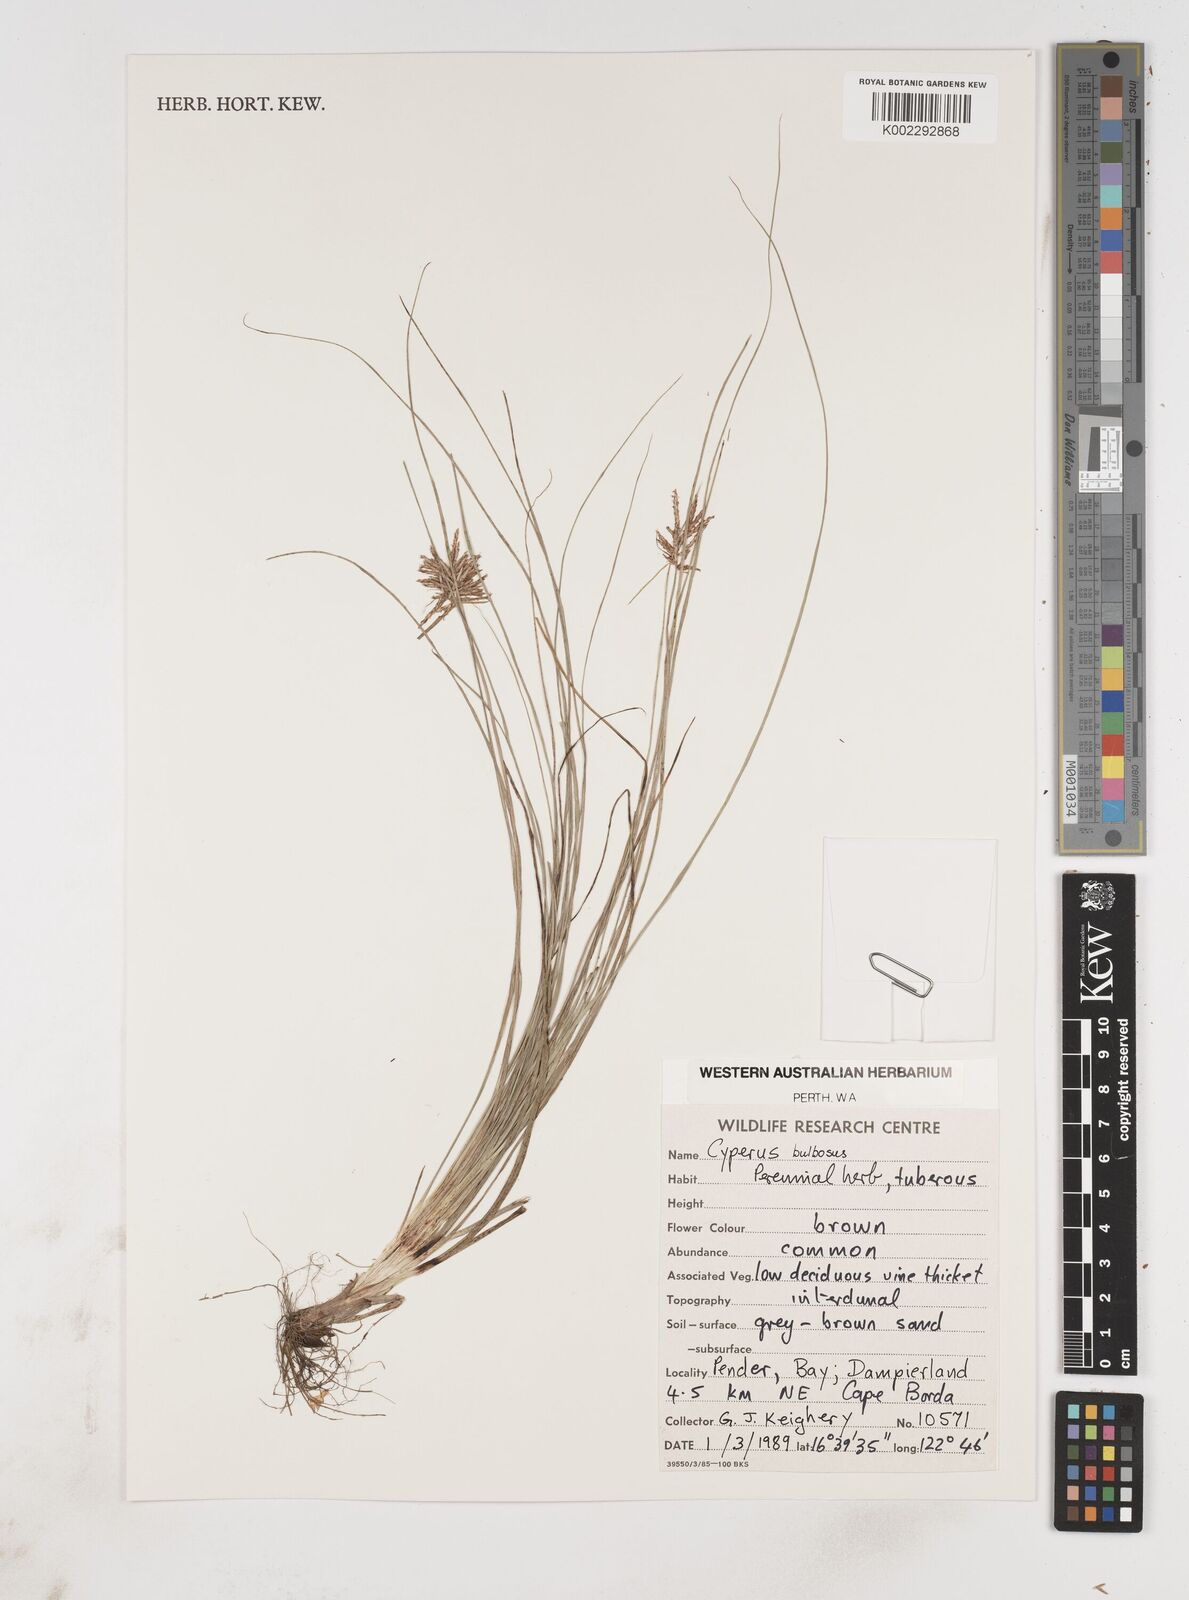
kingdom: Plantae
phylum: Tracheophyta
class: Liliopsida
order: Poales
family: Cyperaceae
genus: Cyperus
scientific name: Cyperus bulbosus
